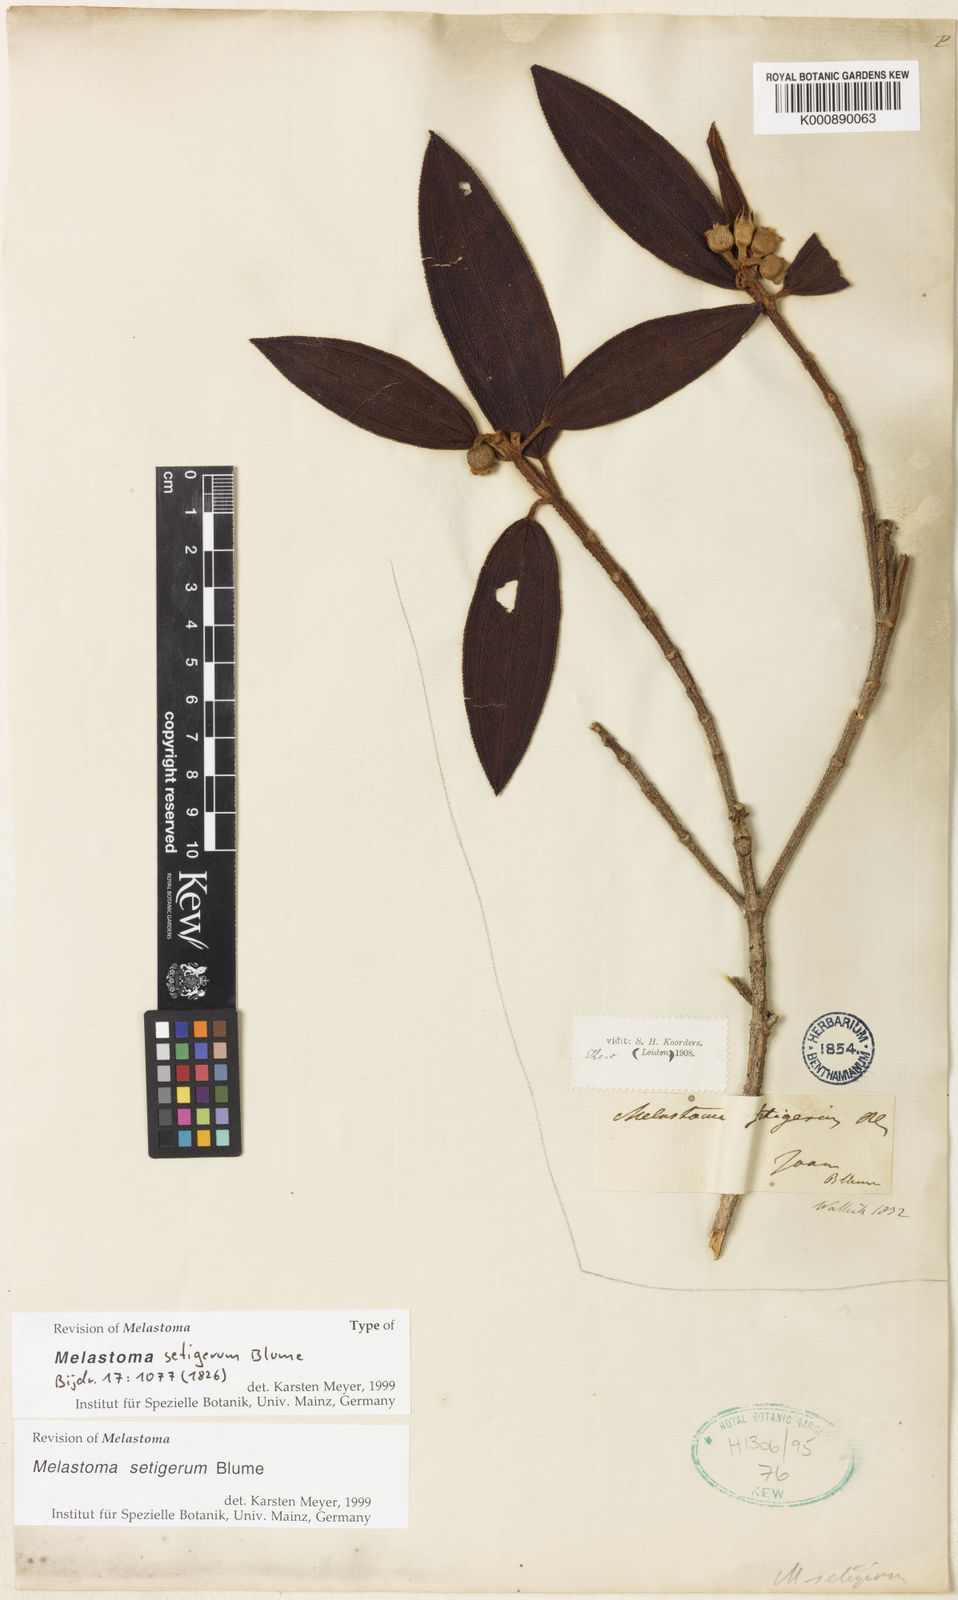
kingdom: Plantae
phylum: Tracheophyta
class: Magnoliopsida
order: Myrtales
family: Melastomataceae
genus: Melastoma
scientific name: Melastoma malabathricum
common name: Indian-rhododendron
